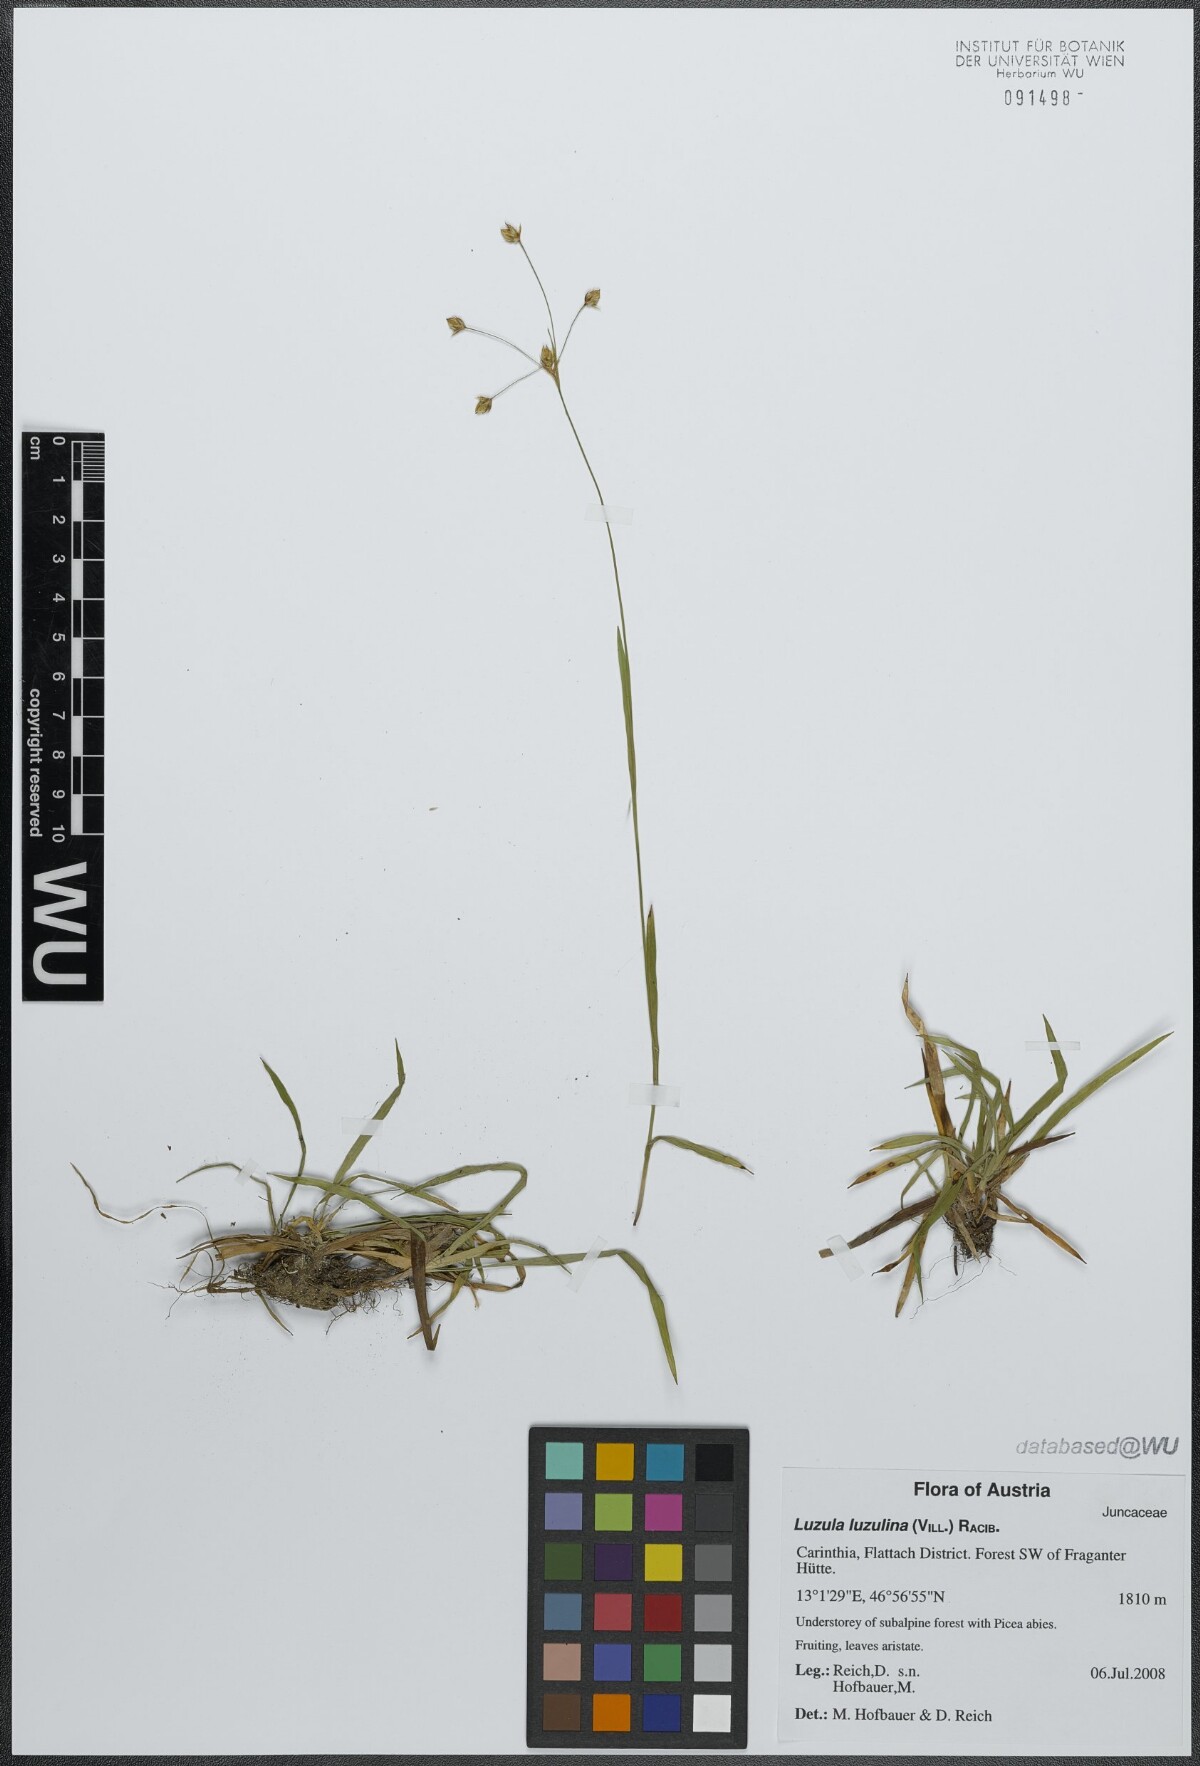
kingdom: Plantae
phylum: Tracheophyta
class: Liliopsida
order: Poales
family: Juncaceae
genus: Luzula
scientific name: Luzula luzulina
